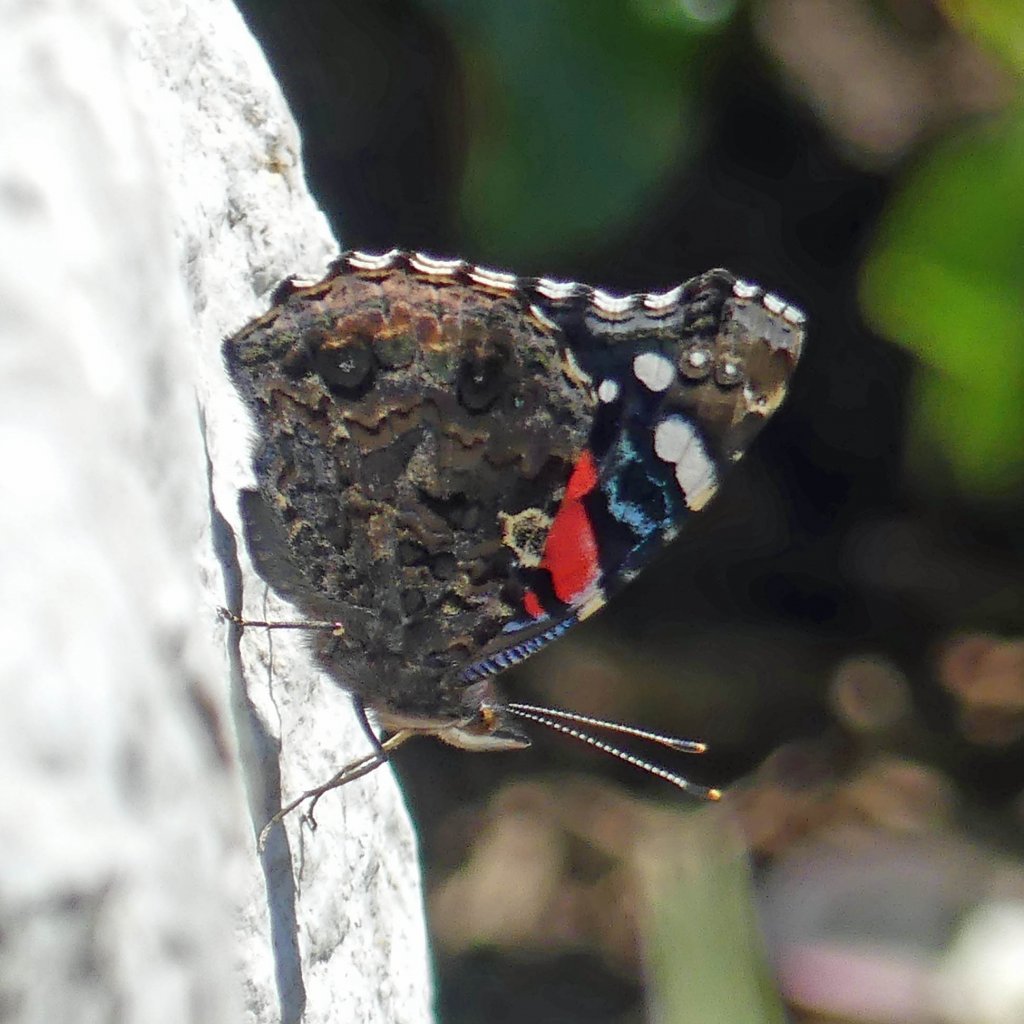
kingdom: Animalia
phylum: Arthropoda
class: Insecta
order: Lepidoptera
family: Nymphalidae
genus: Vanessa
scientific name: Vanessa atalanta
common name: Red Admiral
